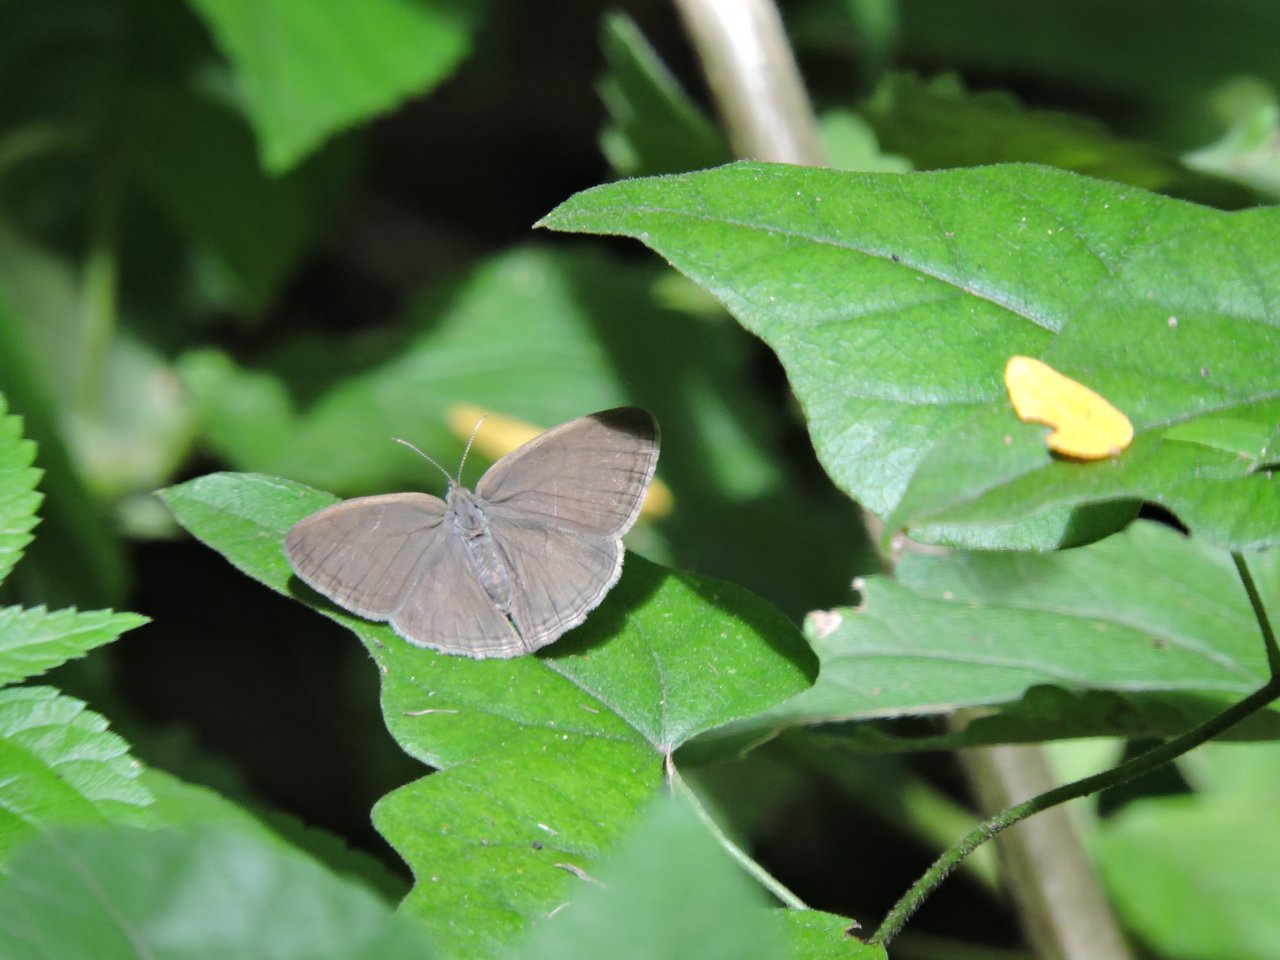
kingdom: Animalia
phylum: Arthropoda
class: Insecta
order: Lepidoptera
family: Nymphalidae
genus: Hermeuptychia
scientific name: Hermeuptychia hermes
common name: Carolina Satyr
